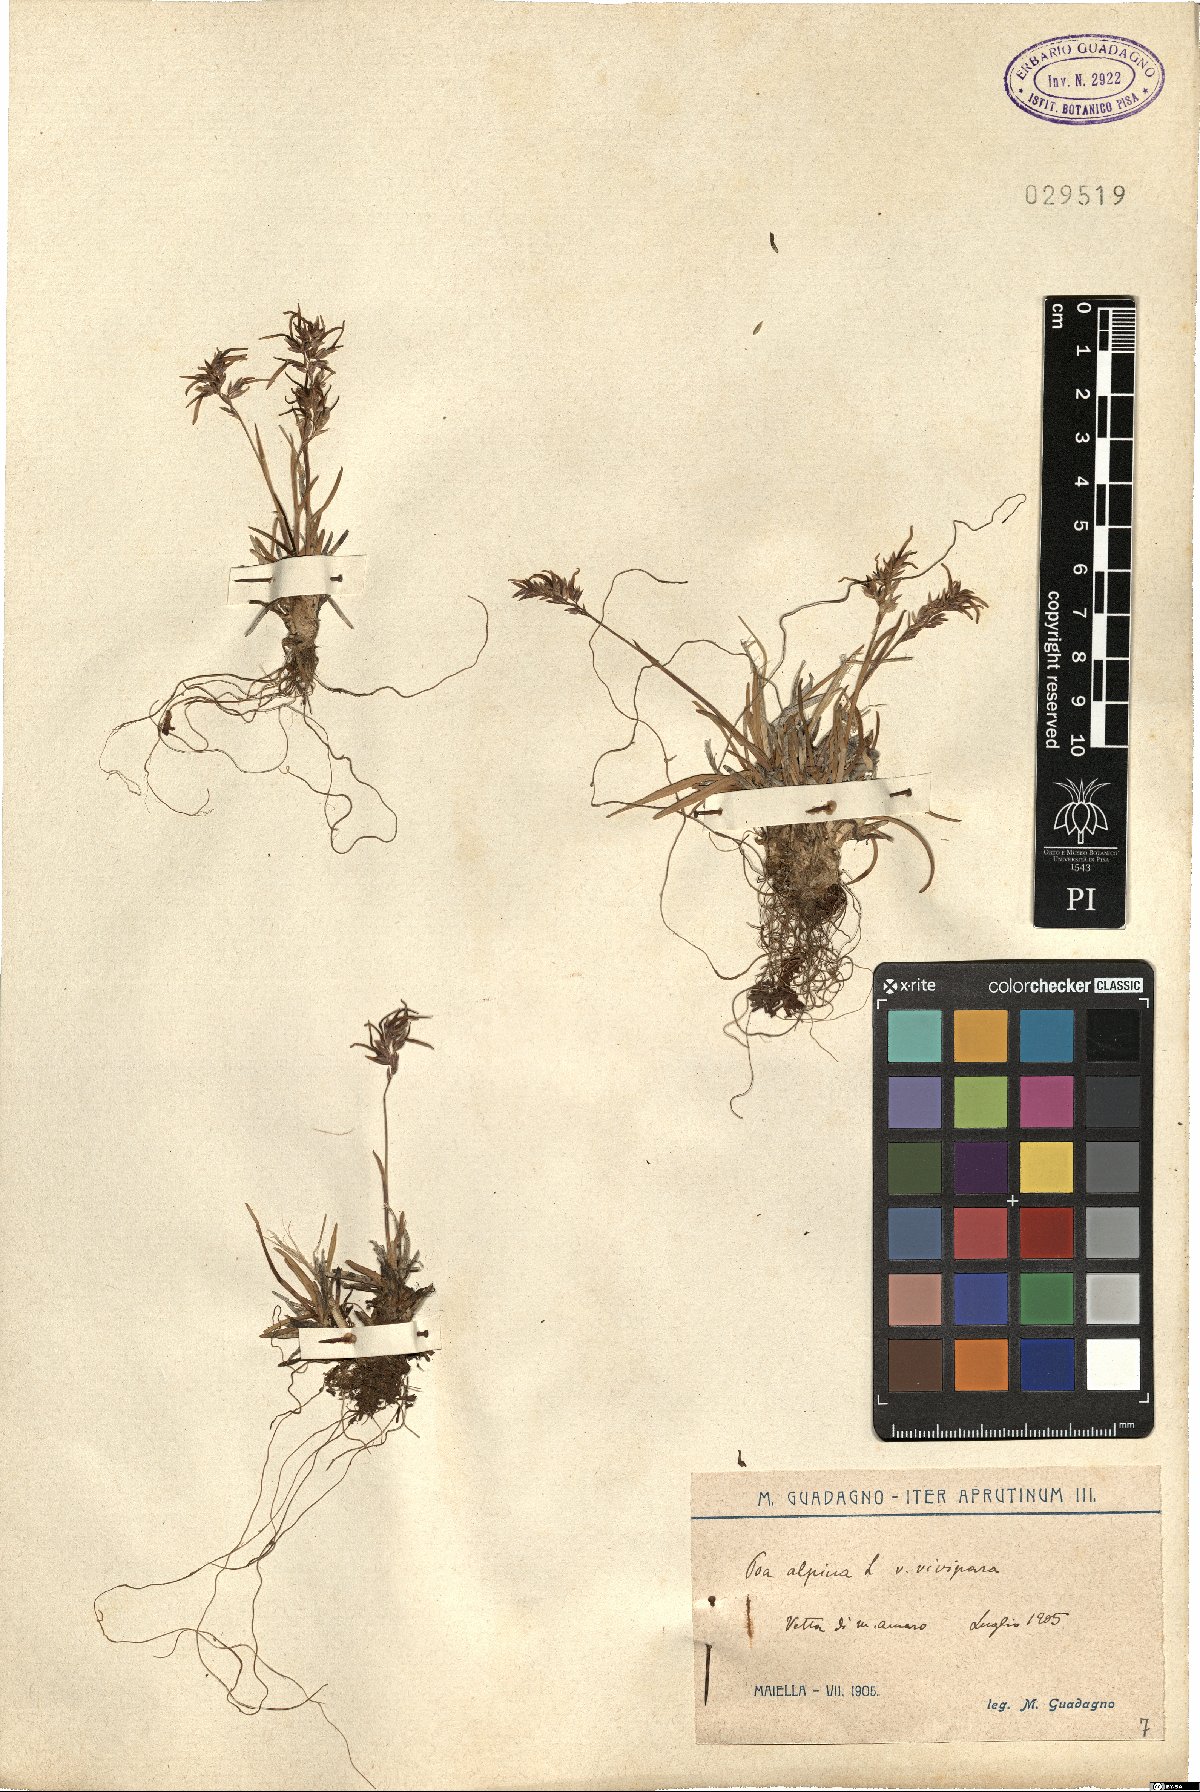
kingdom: Plantae
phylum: Tracheophyta
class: Liliopsida
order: Poales
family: Poaceae
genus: Poa
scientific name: Poa alpina
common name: Alpine bluegrass
